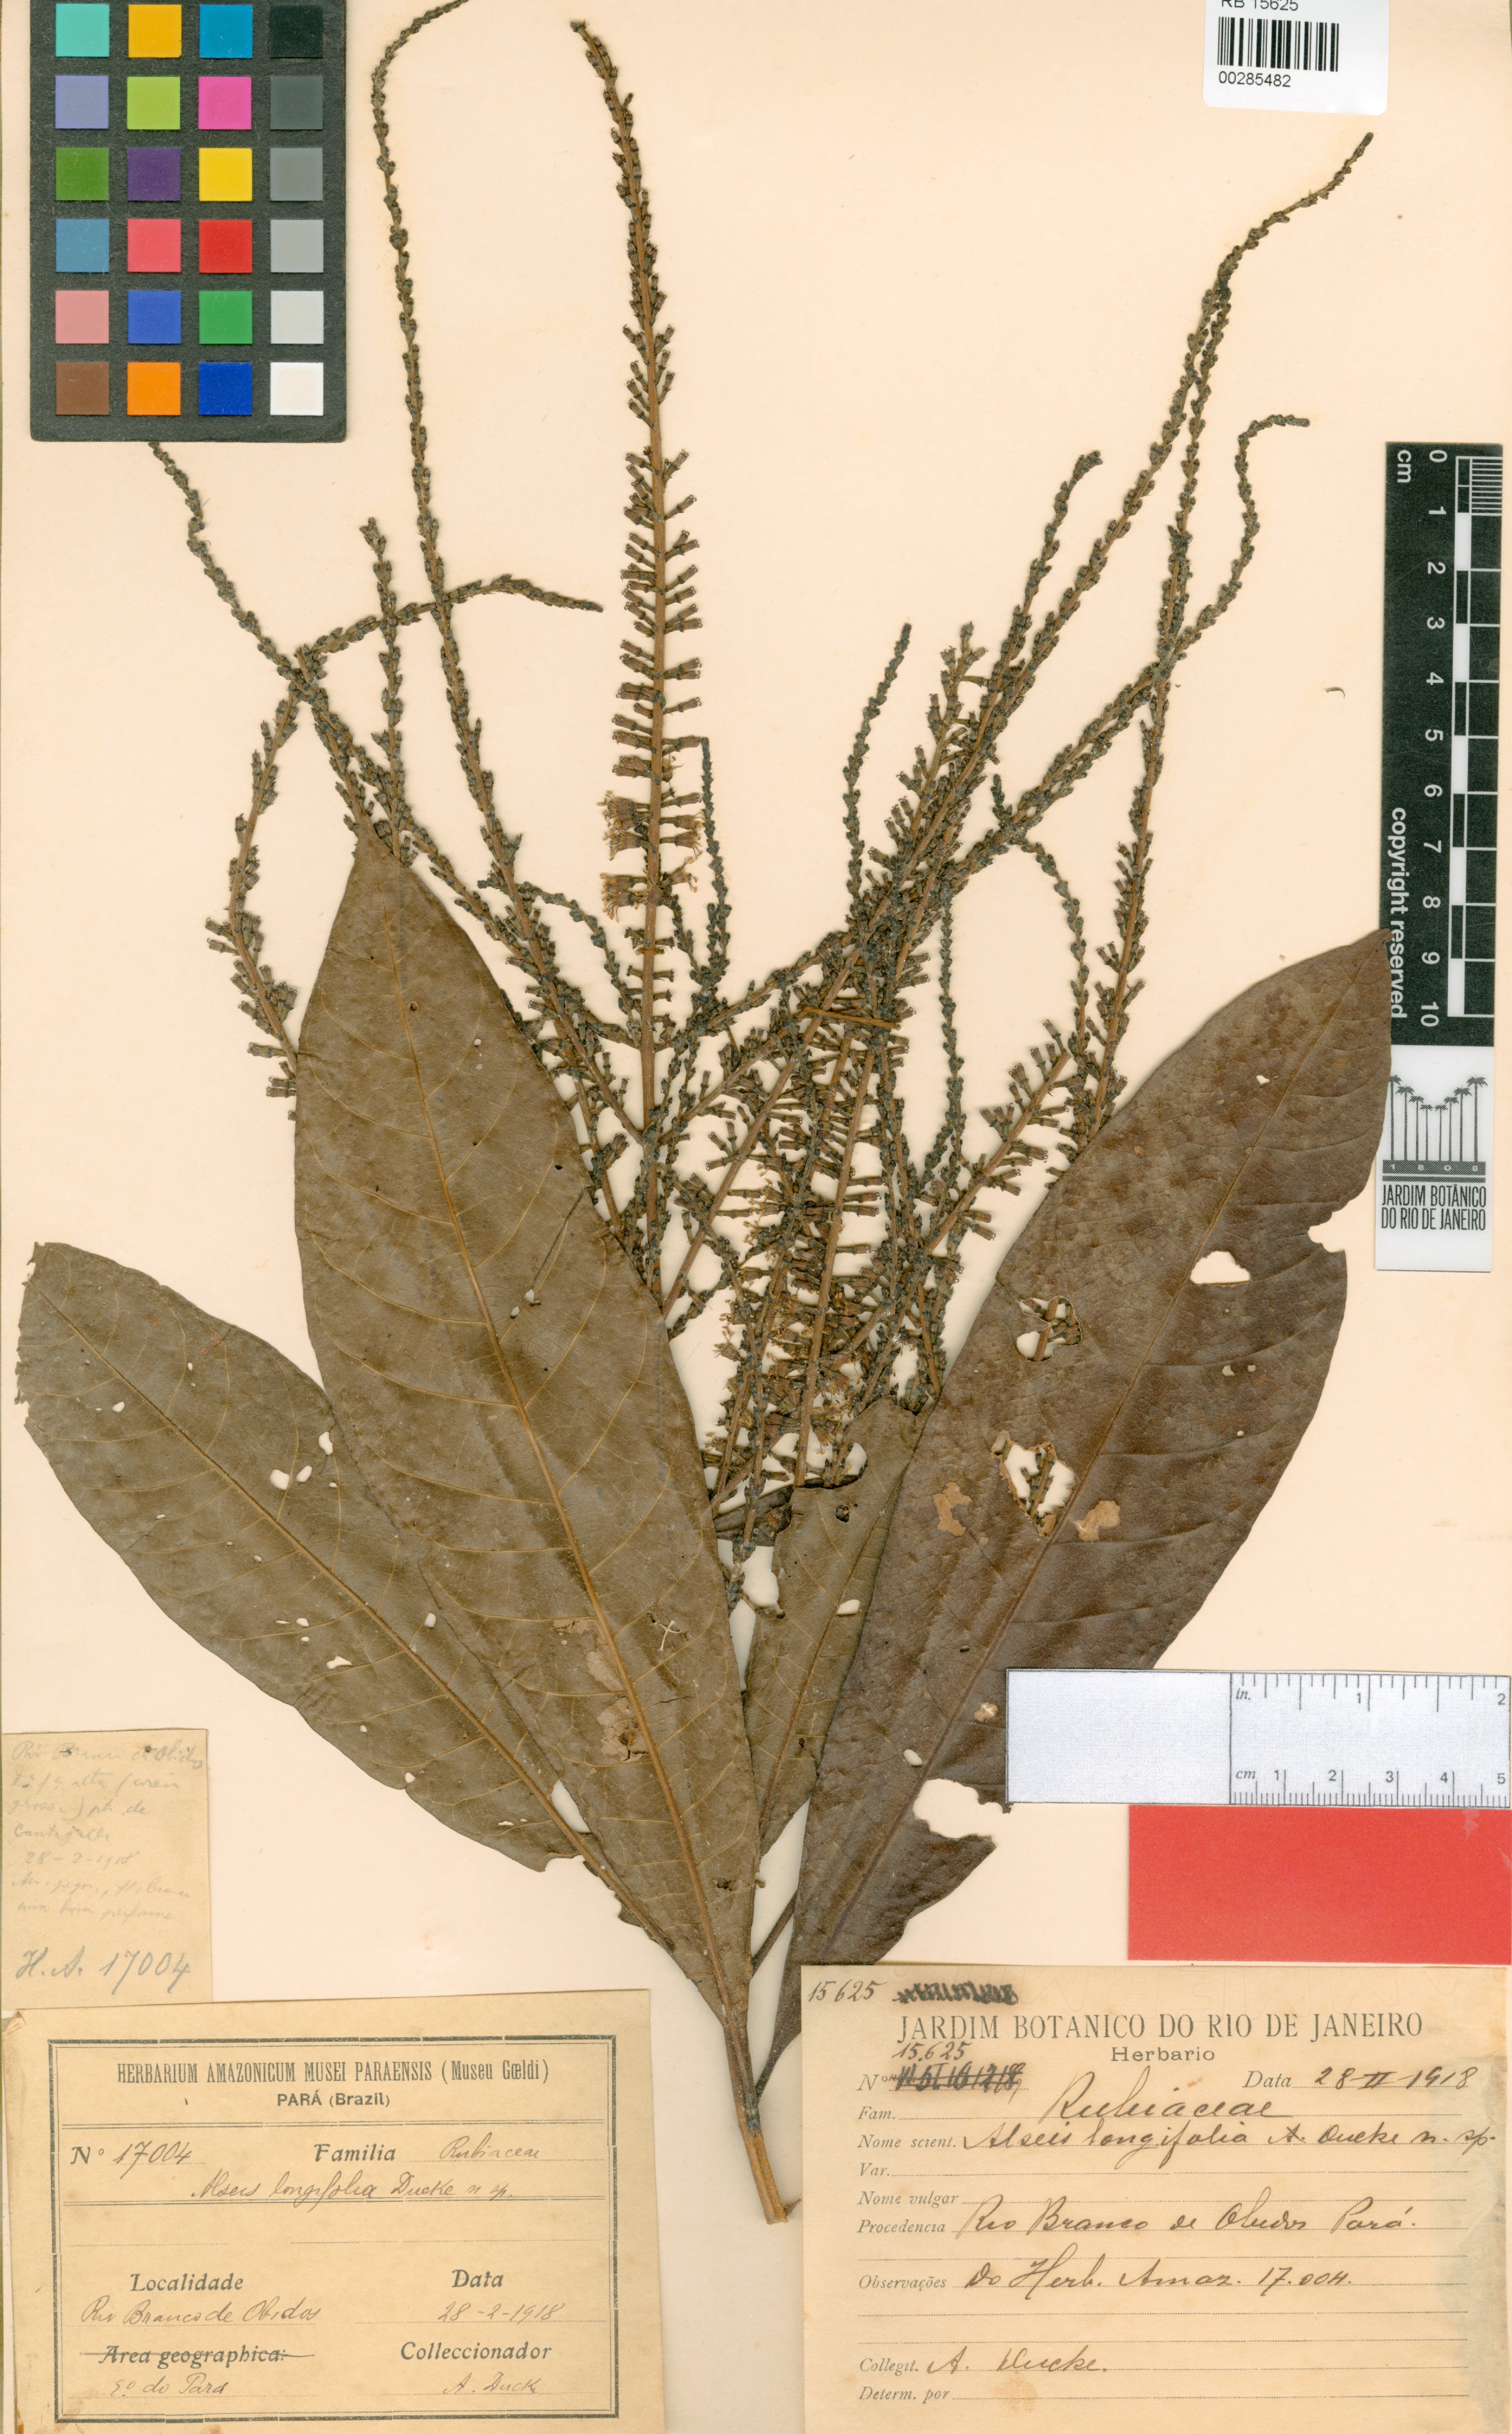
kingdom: Plantae
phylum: Tracheophyta
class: Magnoliopsida
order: Gentianales
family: Rubiaceae
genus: Alseis
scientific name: Alseis longifolia
